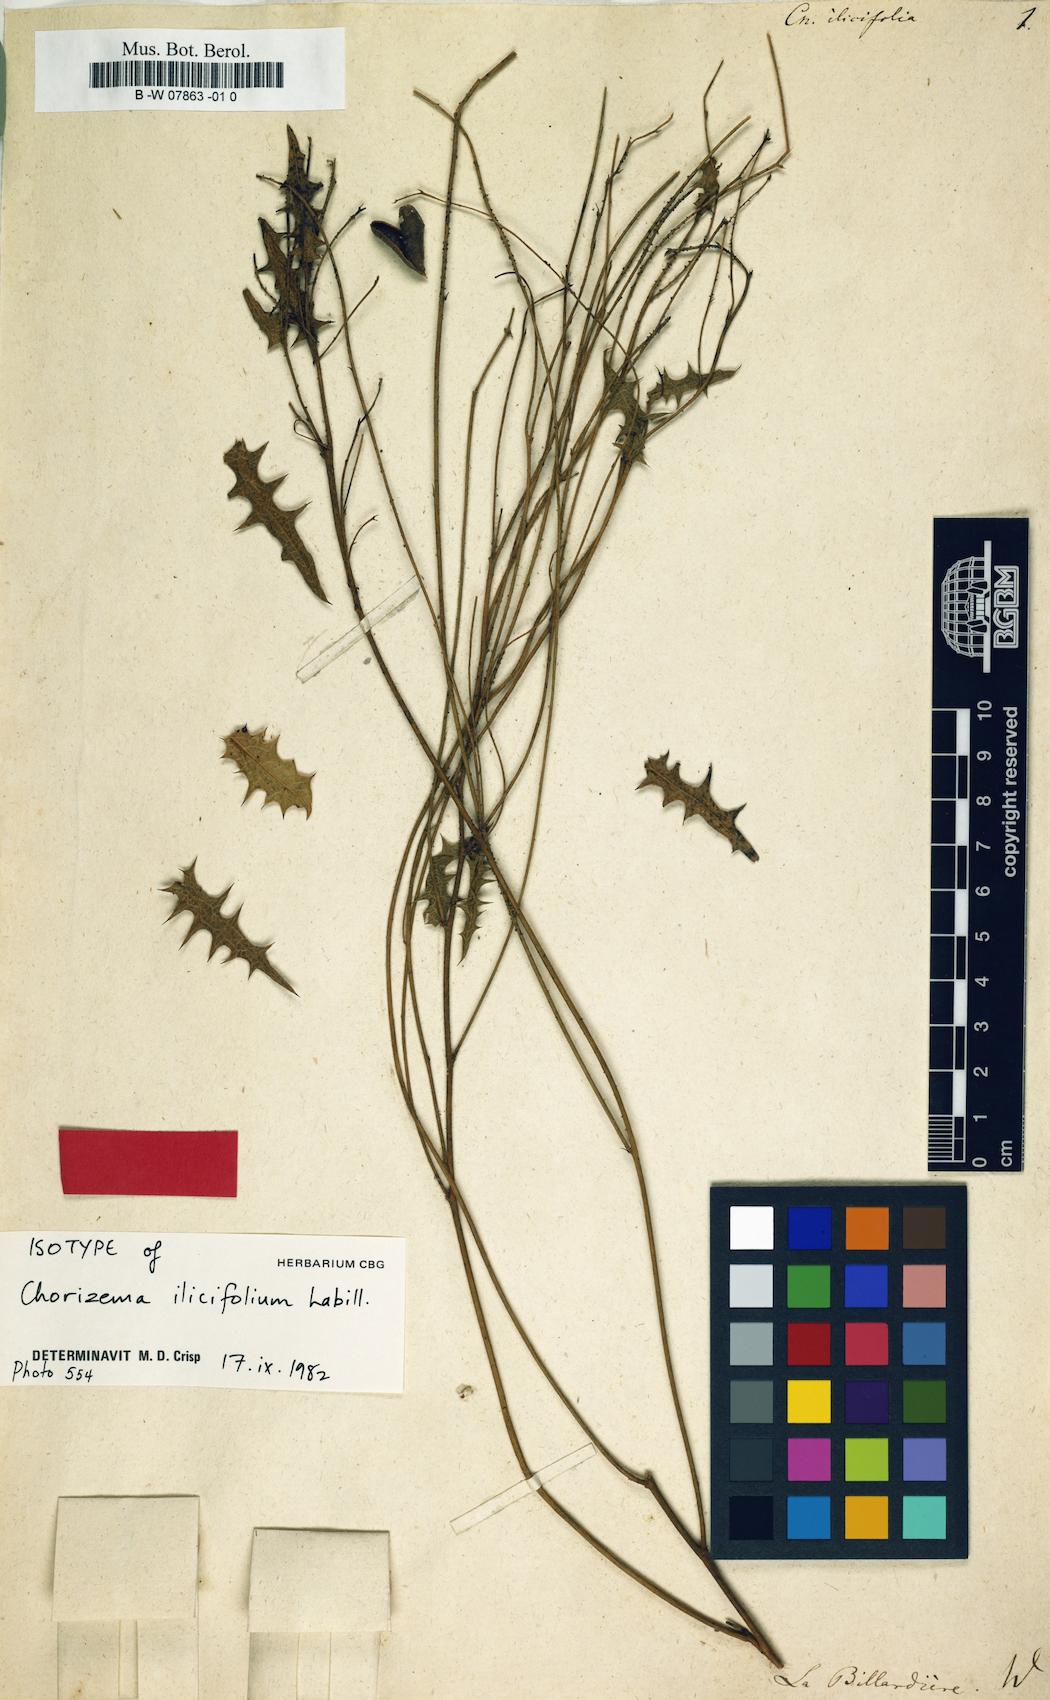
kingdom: Plantae
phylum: Tracheophyta
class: Magnoliopsida
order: Fabales
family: Fabaceae
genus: Chorizema
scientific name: Chorizema ilicifolium
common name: Holly flame-pea
